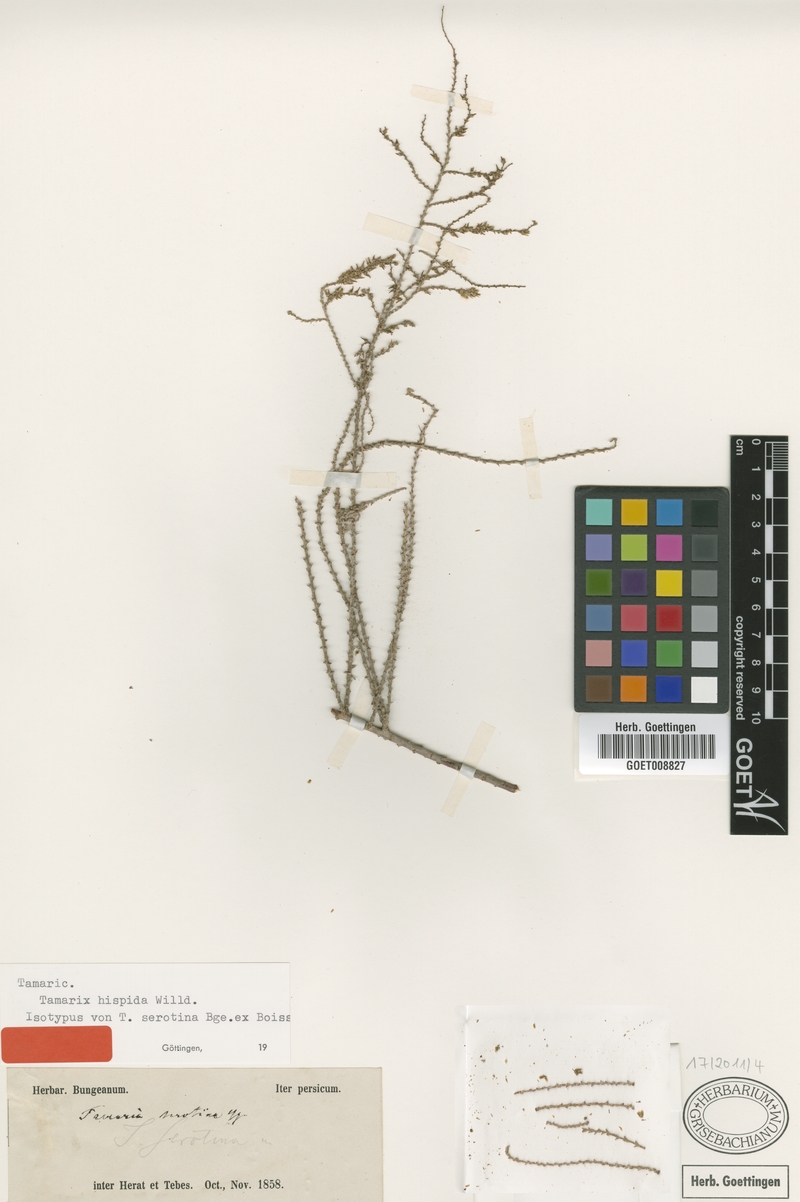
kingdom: Plantae
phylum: Tracheophyta
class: Magnoliopsida
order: Caryophyllales
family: Tamaricaceae
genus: Tamarix
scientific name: Tamarix hispida
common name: Kashgar tamarisk
